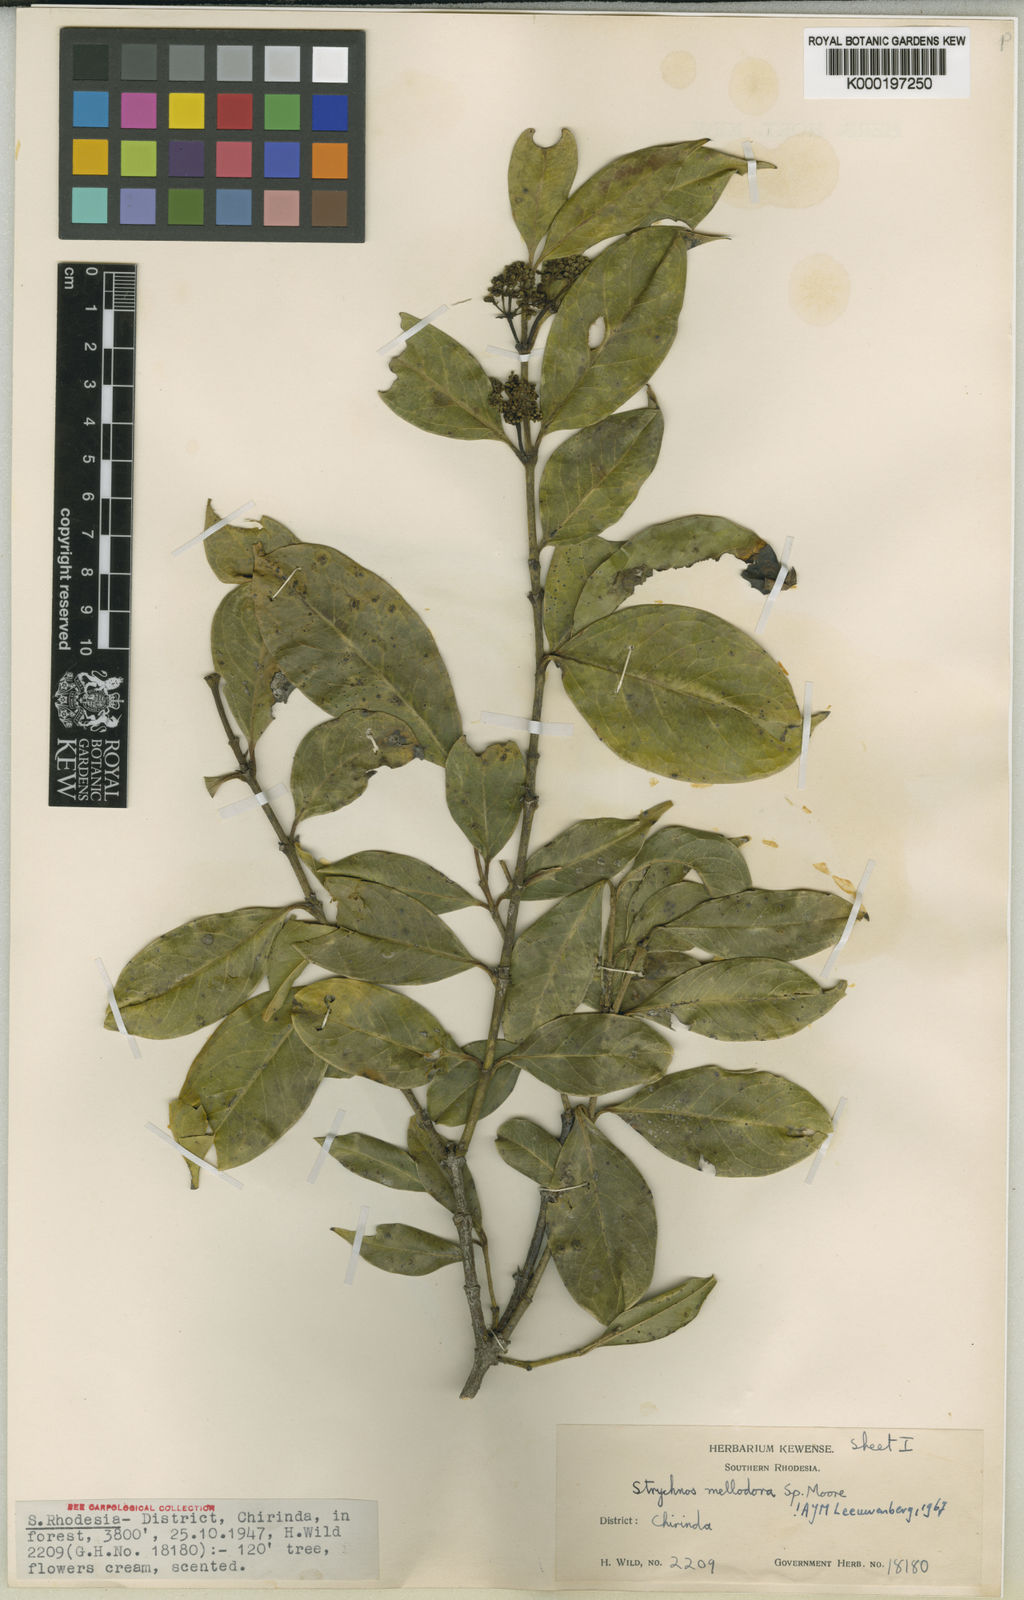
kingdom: Plantae
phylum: Tracheophyta
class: Magnoliopsida
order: Gentianales
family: Loganiaceae
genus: Strychnos
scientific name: Strychnos mellodora
